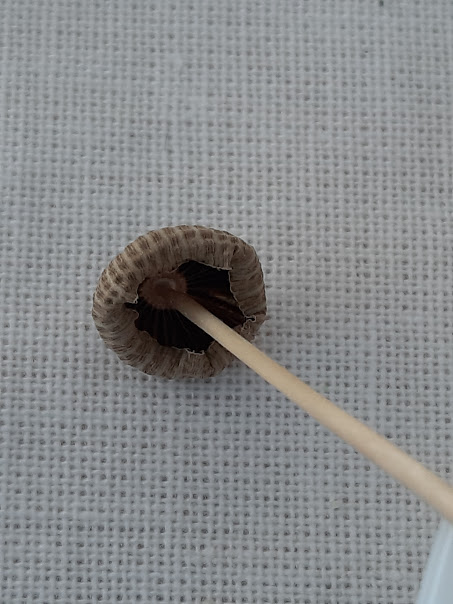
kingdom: Fungi
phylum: Basidiomycota
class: Agaricomycetes
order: Agaricales
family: Psathyrellaceae
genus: Parasola
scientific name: Parasola
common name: hjulhat
